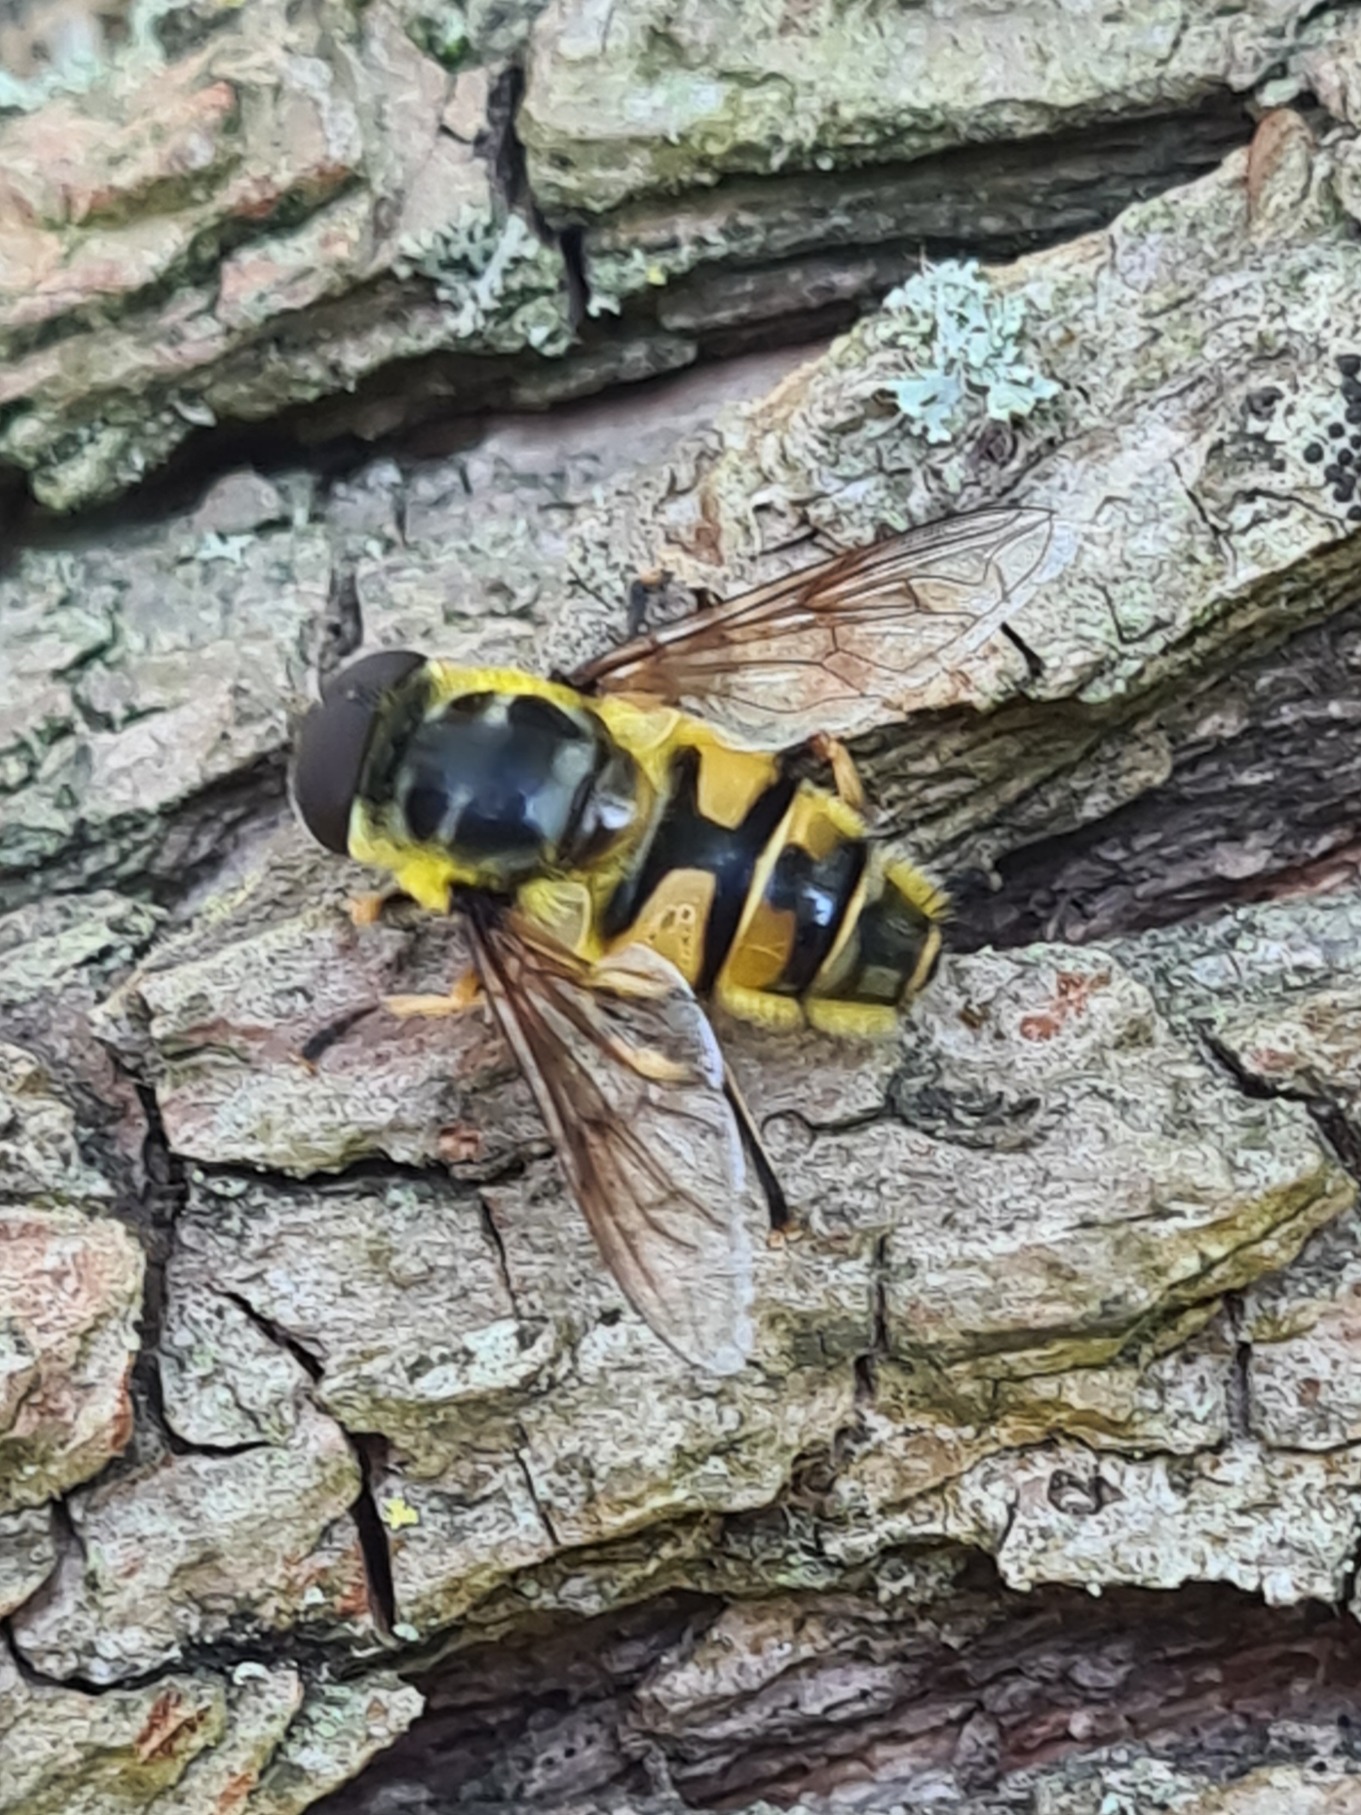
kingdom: Animalia
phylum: Arthropoda
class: Insecta
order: Diptera
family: Syrphidae
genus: Myathropa
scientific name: Myathropa florea
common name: Dødningehoved-svirreflue
